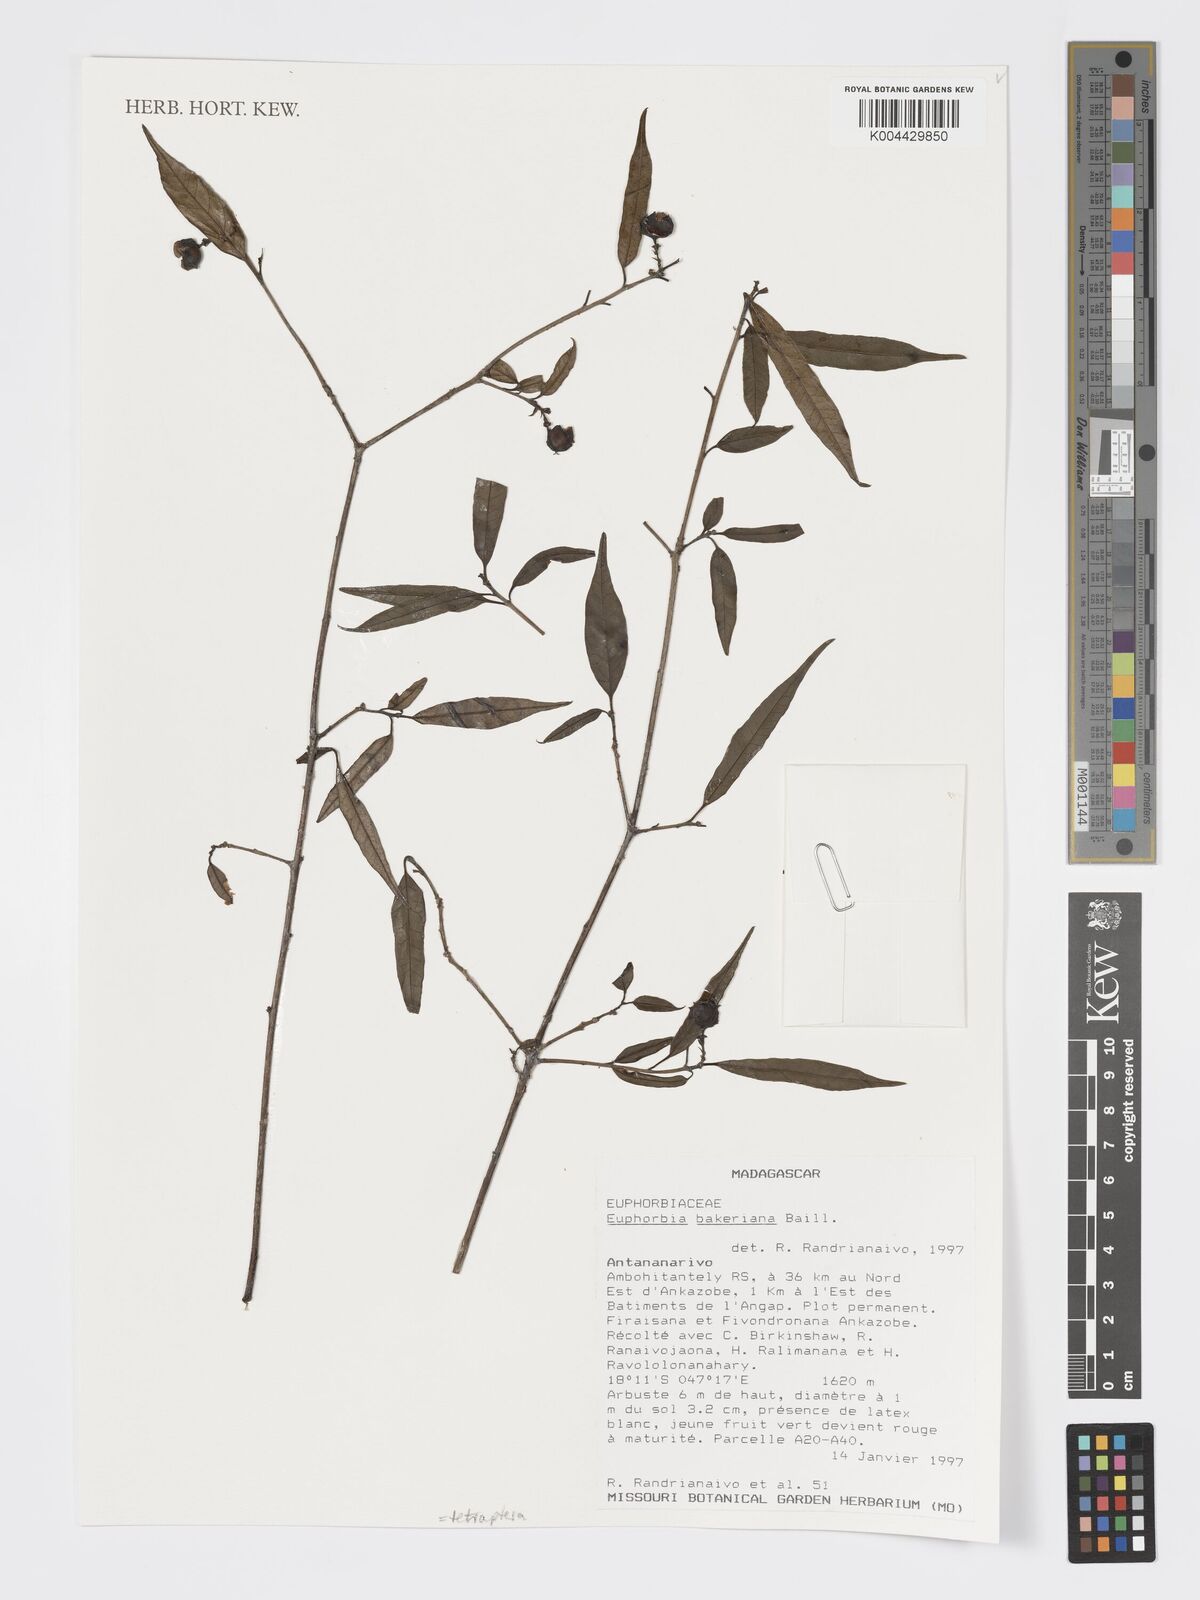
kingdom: Plantae
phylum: Tracheophyta
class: Magnoliopsida
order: Malpighiales
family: Euphorbiaceae
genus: Euphorbia
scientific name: Euphorbia tetraptera
